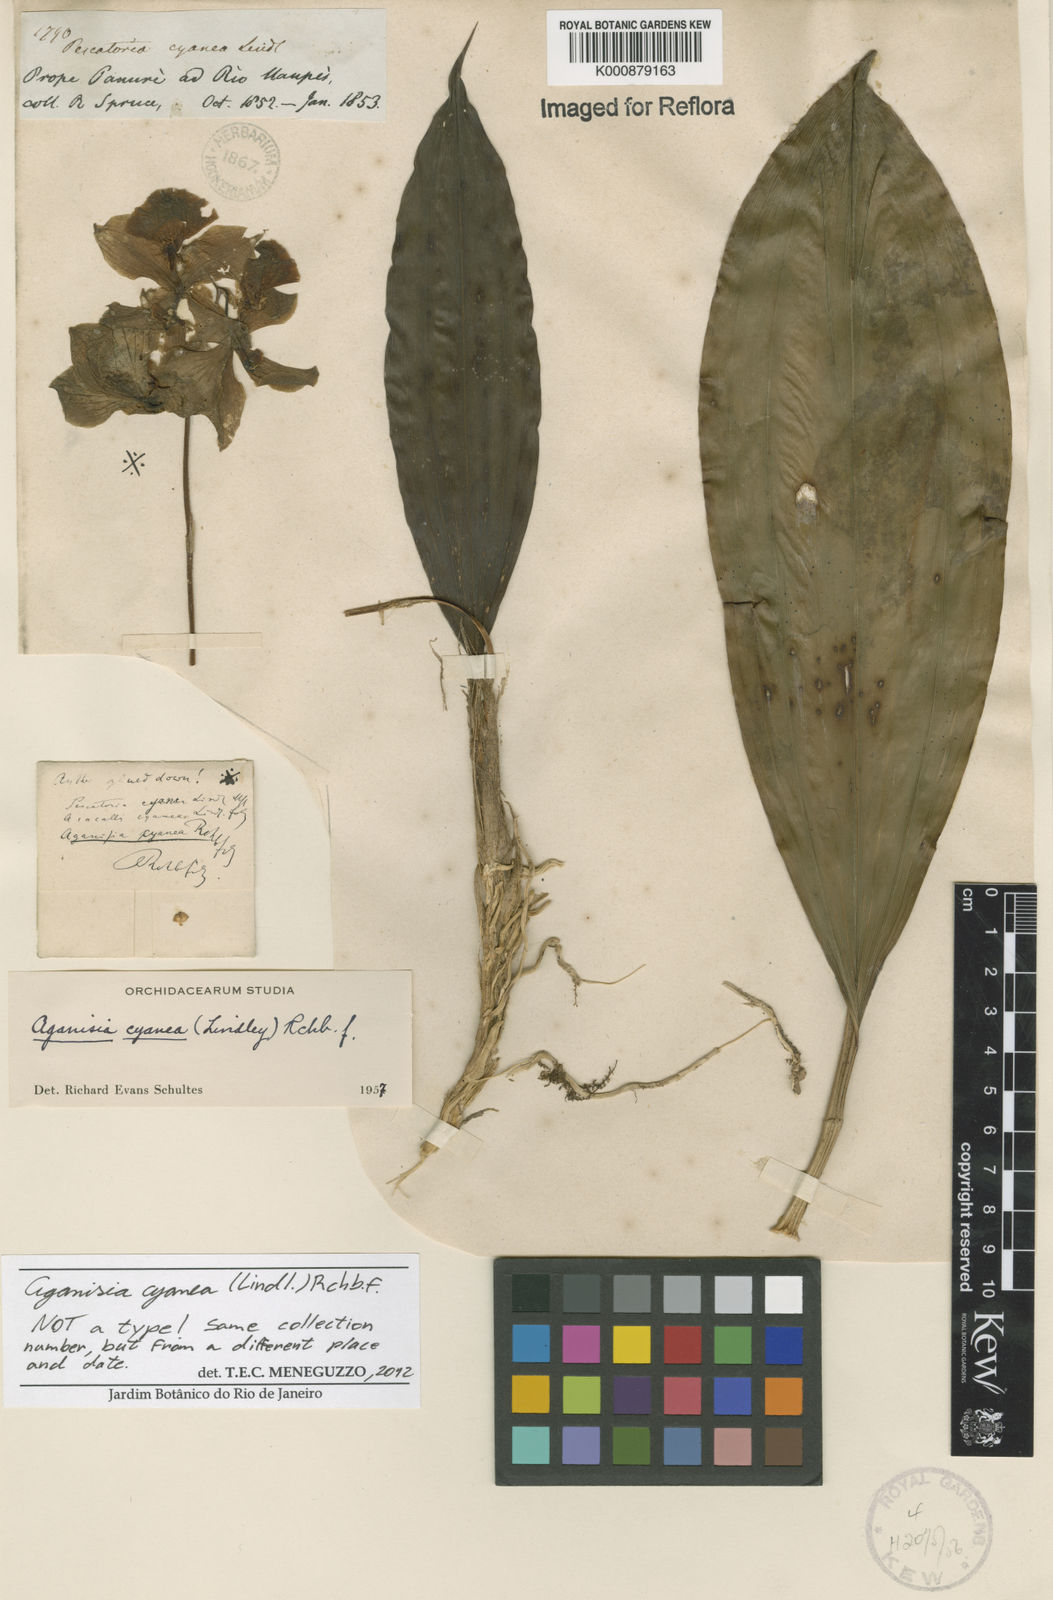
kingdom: Plantae
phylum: Tracheophyta
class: Liliopsida
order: Asparagales
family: Orchidaceae
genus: Aganisia
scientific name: Aganisia cyanea
